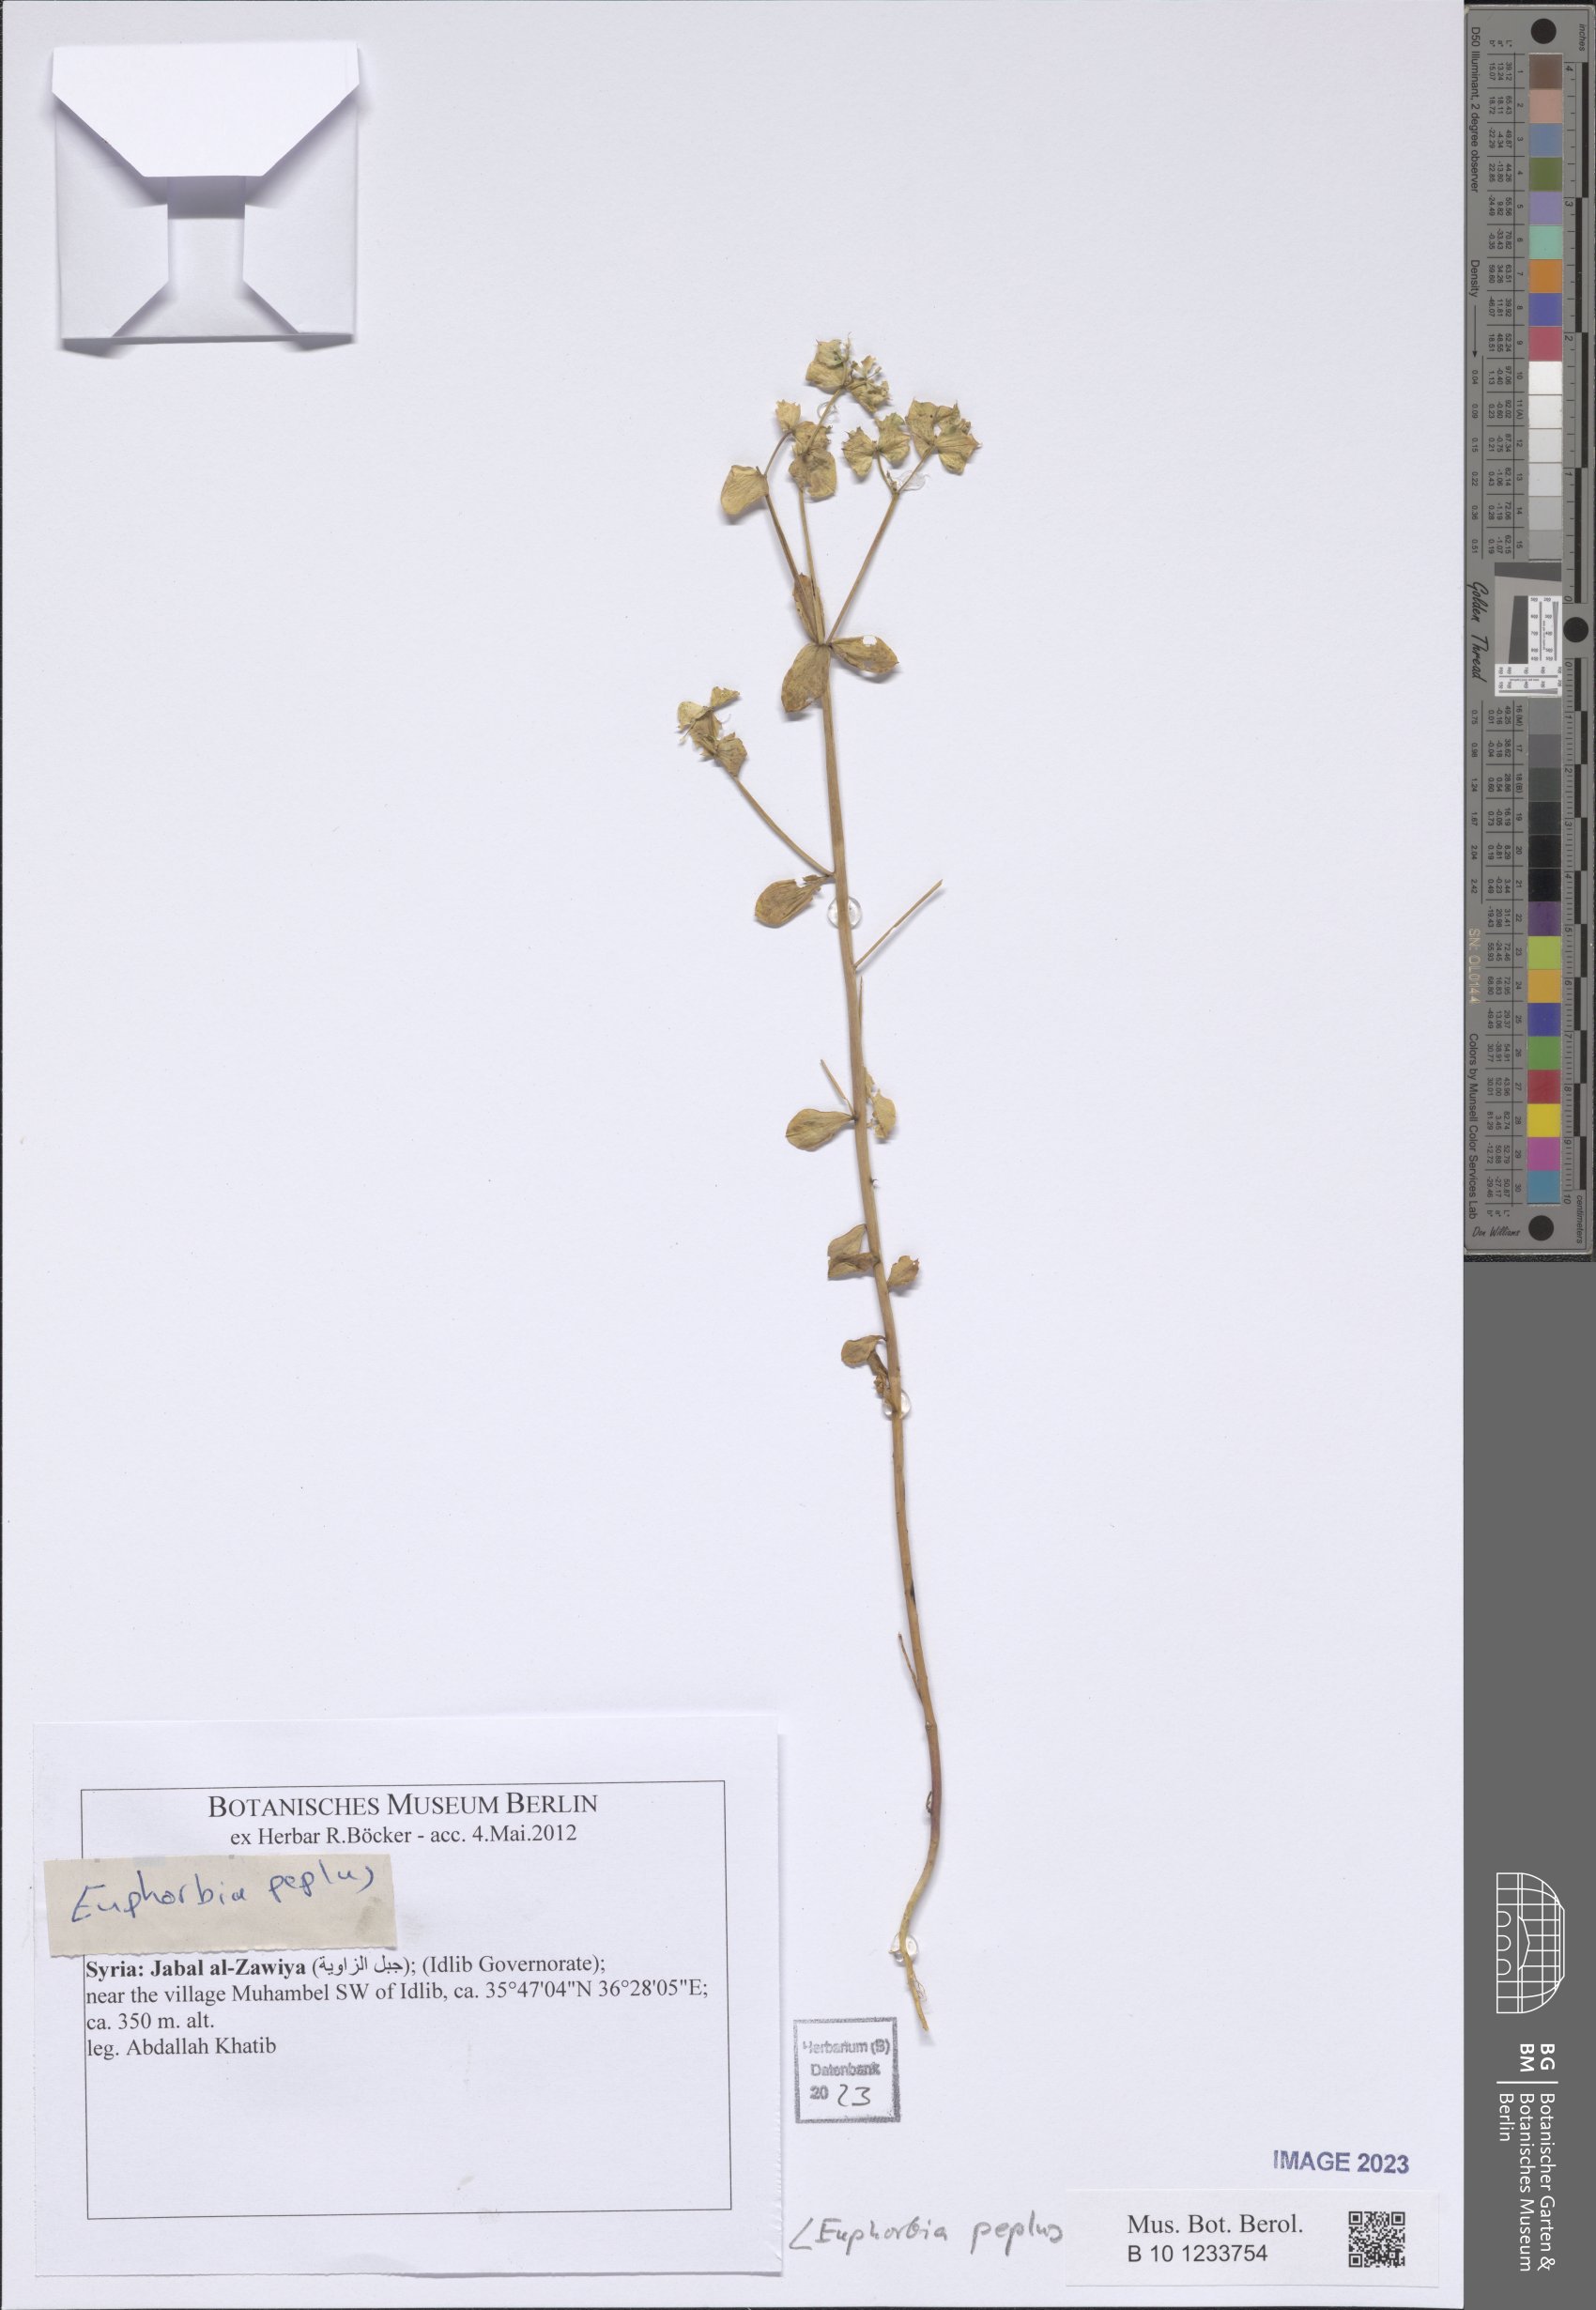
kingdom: Plantae
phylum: Tracheophyta
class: Magnoliopsida
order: Malpighiales
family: Euphorbiaceae
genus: Euphorbia
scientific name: Euphorbia peplus
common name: Petty spurge
